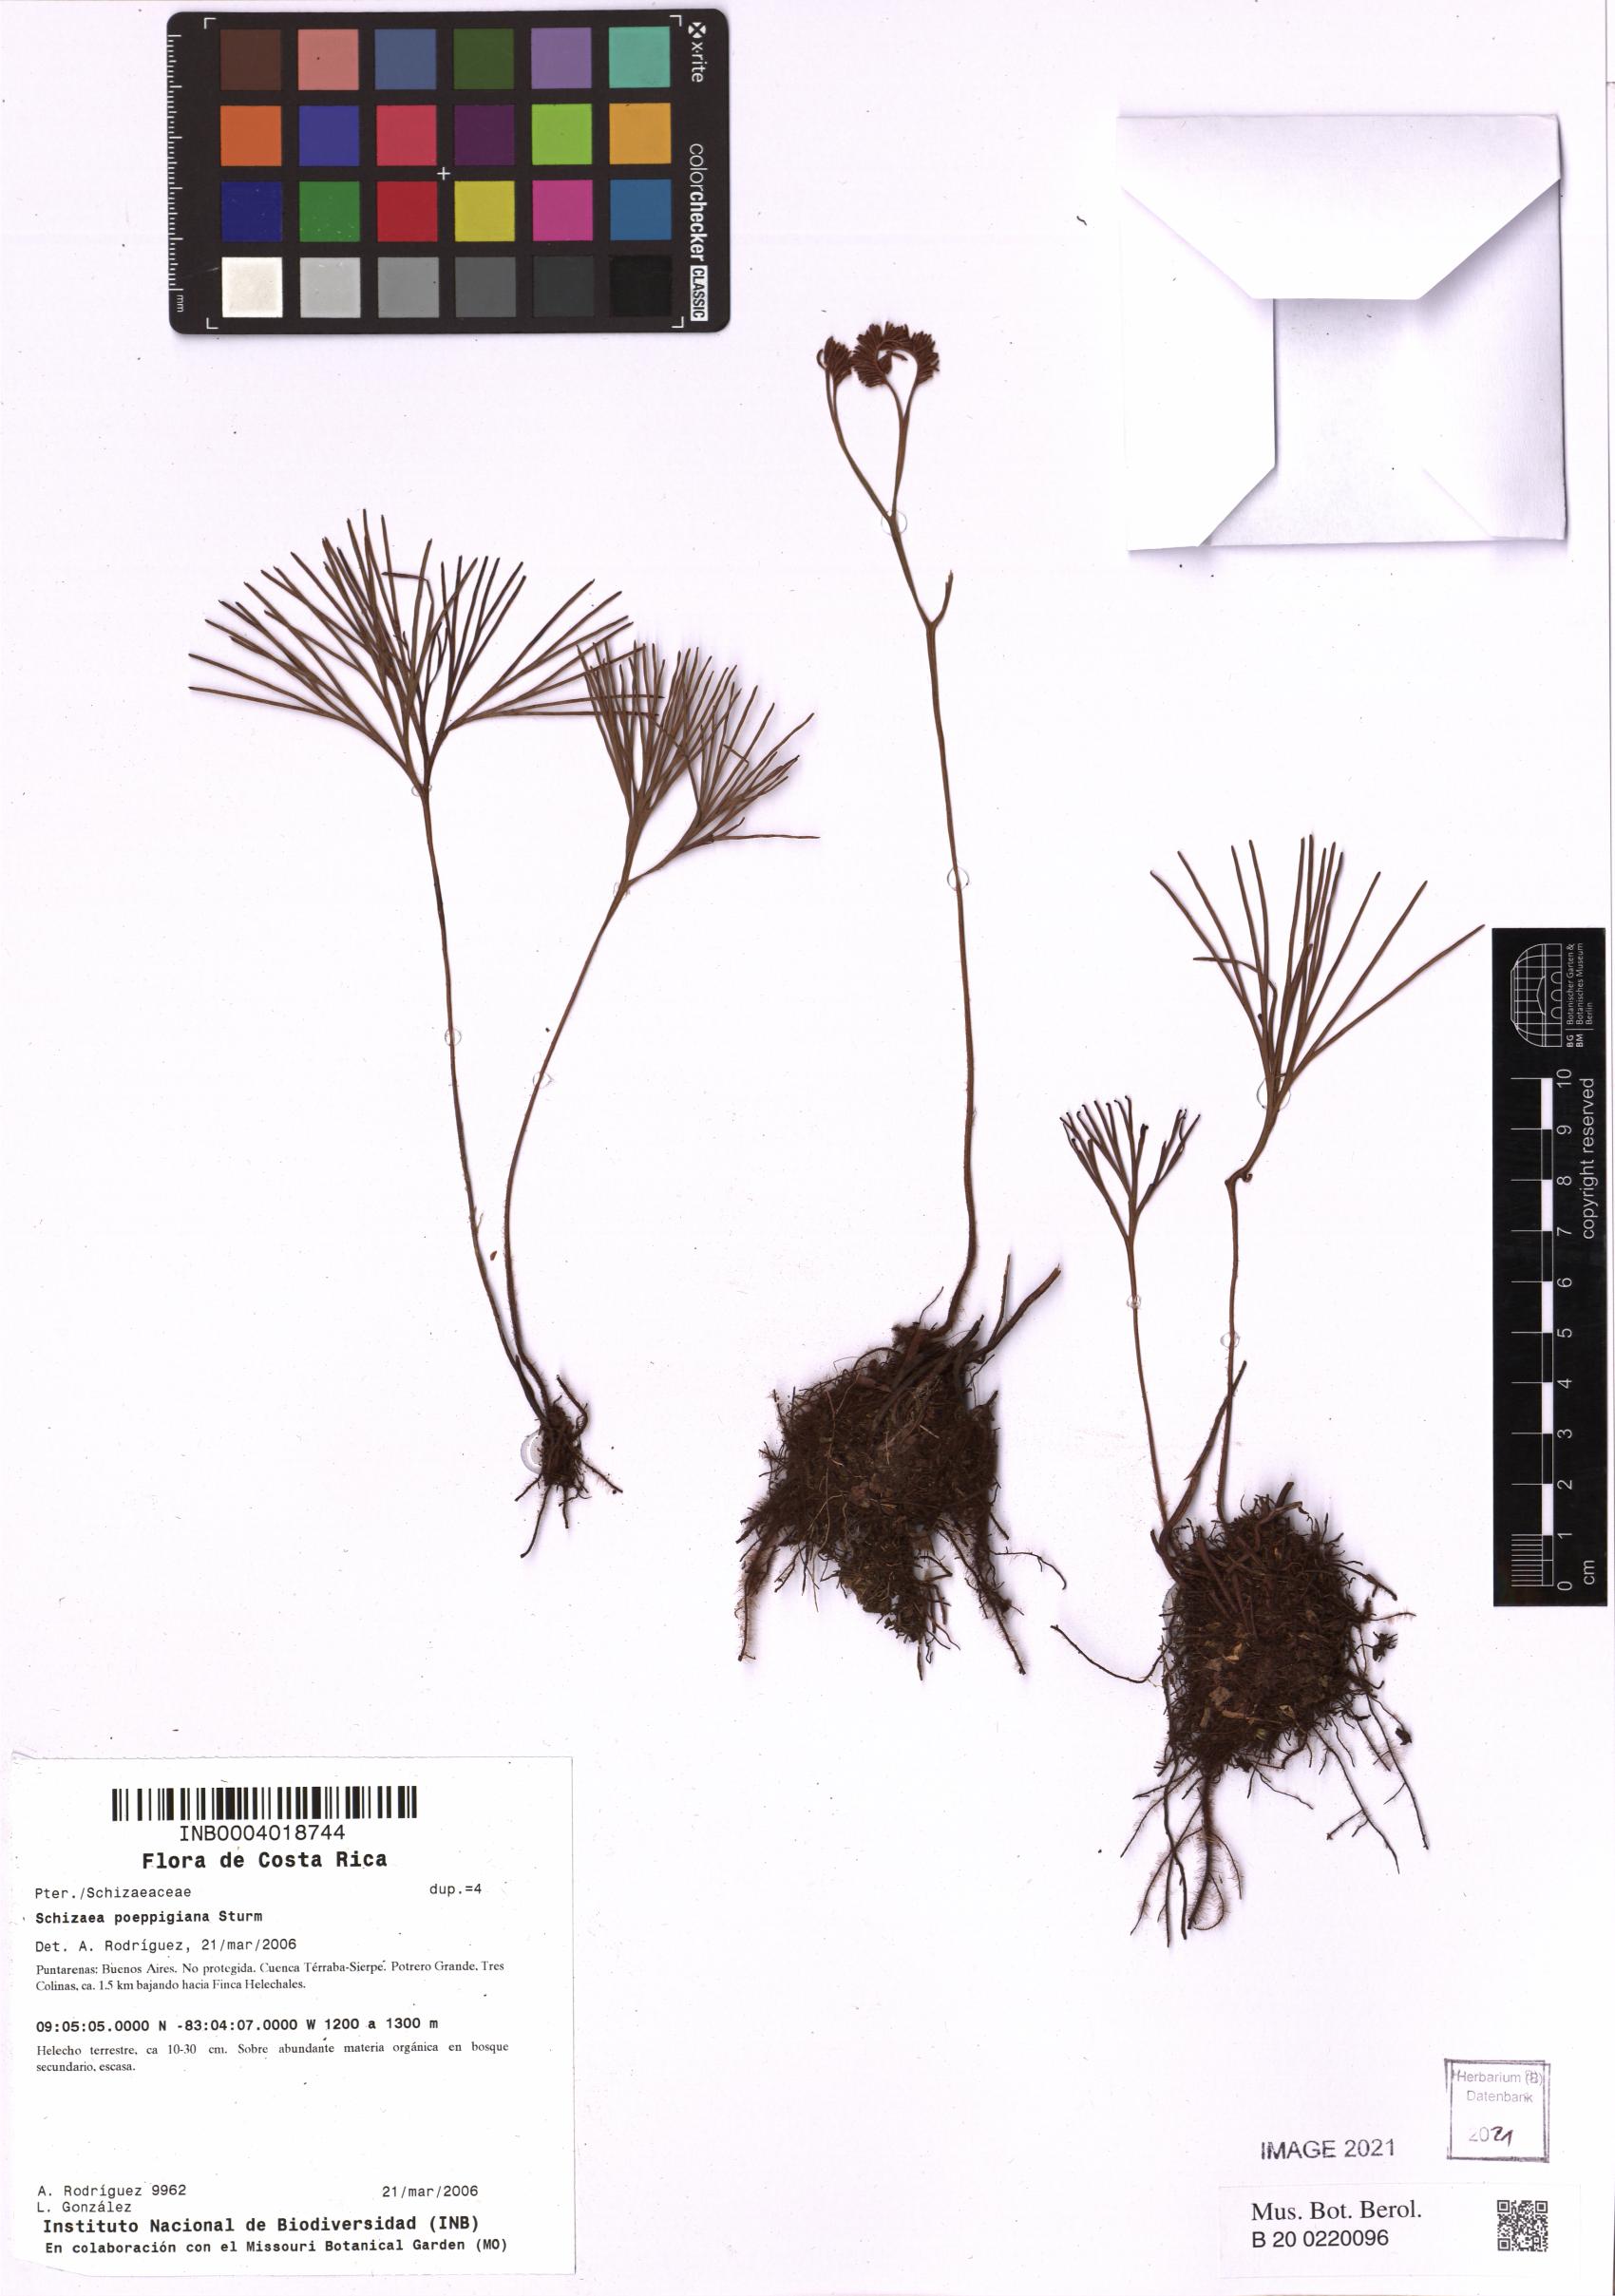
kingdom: Plantae
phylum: Tracheophyta
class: Polypodiopsida
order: Schizaeales
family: Schizaeaceae
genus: Schizaea
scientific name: Schizaea poeppigiana
